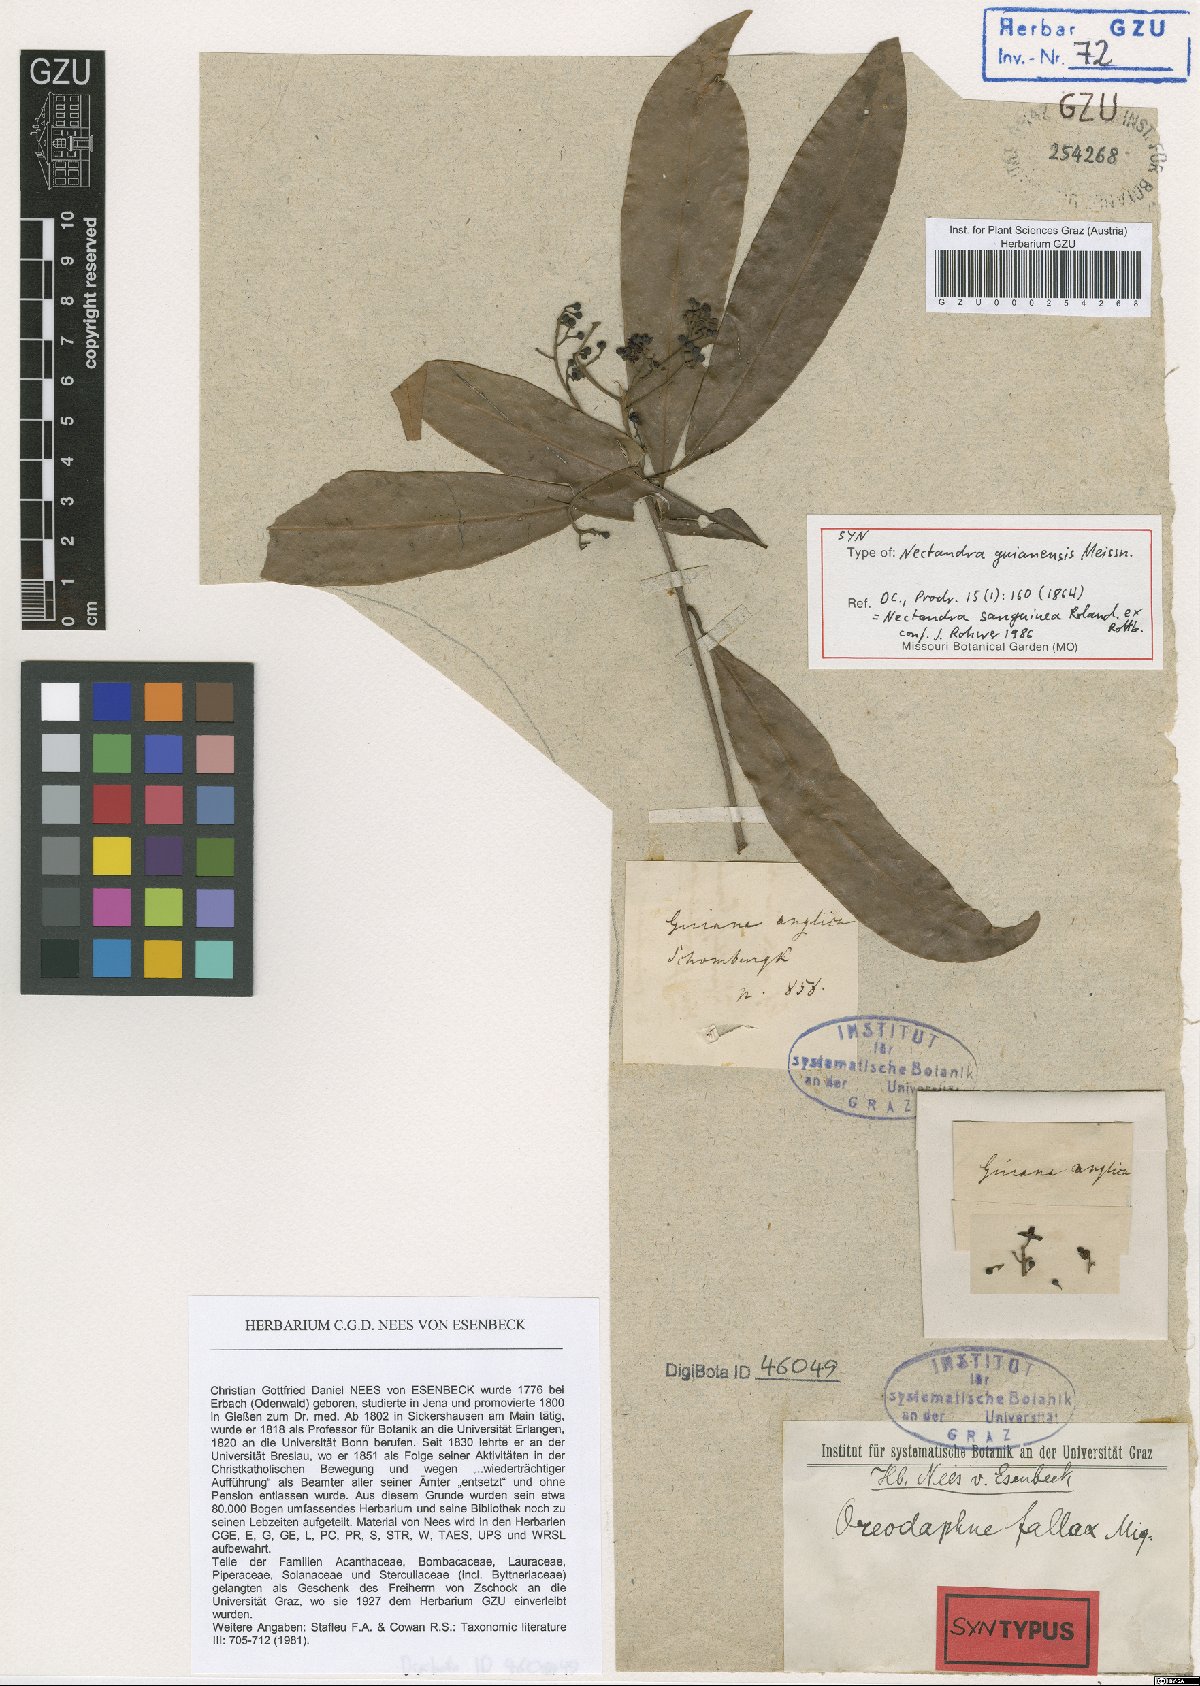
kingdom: Plantae
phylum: Tracheophyta
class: Magnoliopsida
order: Laurales
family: Lauraceae
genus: Nectandra
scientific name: Nectandra sanguinea
